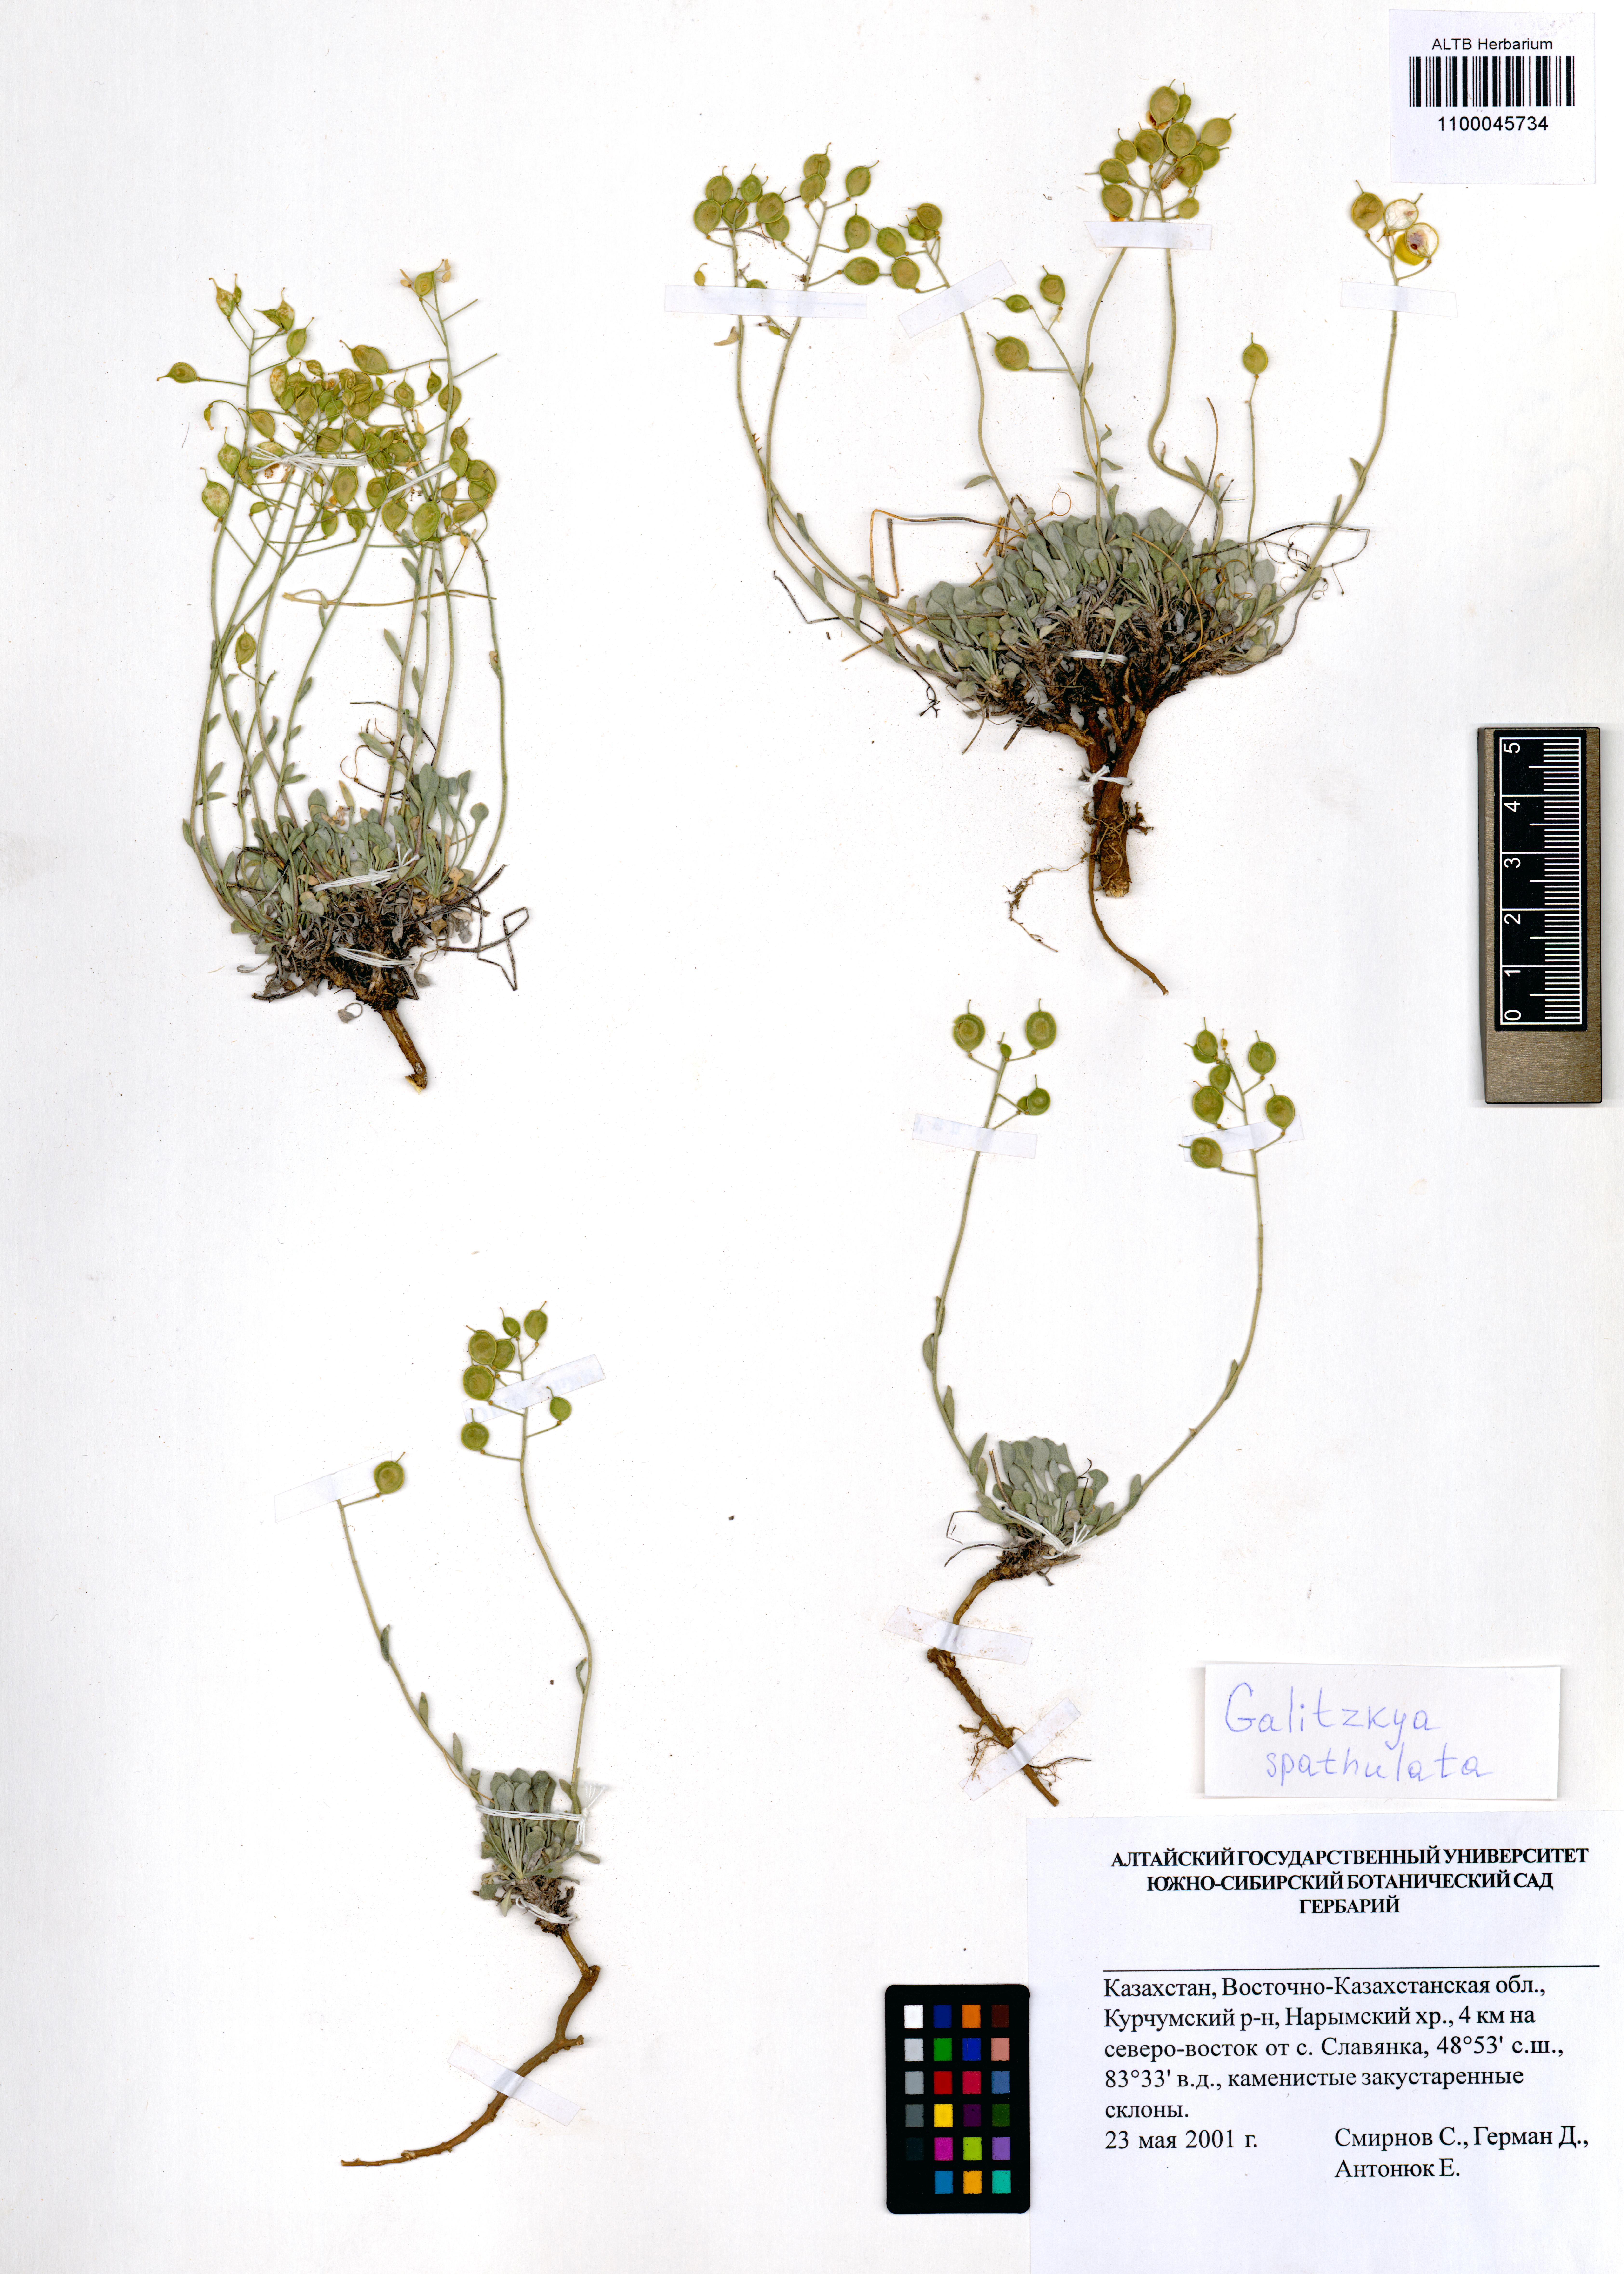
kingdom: Plantae
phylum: Tracheophyta
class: Magnoliopsida
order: Brassicales
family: Brassicaceae
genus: Galitzkya
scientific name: Galitzkya spathulata
